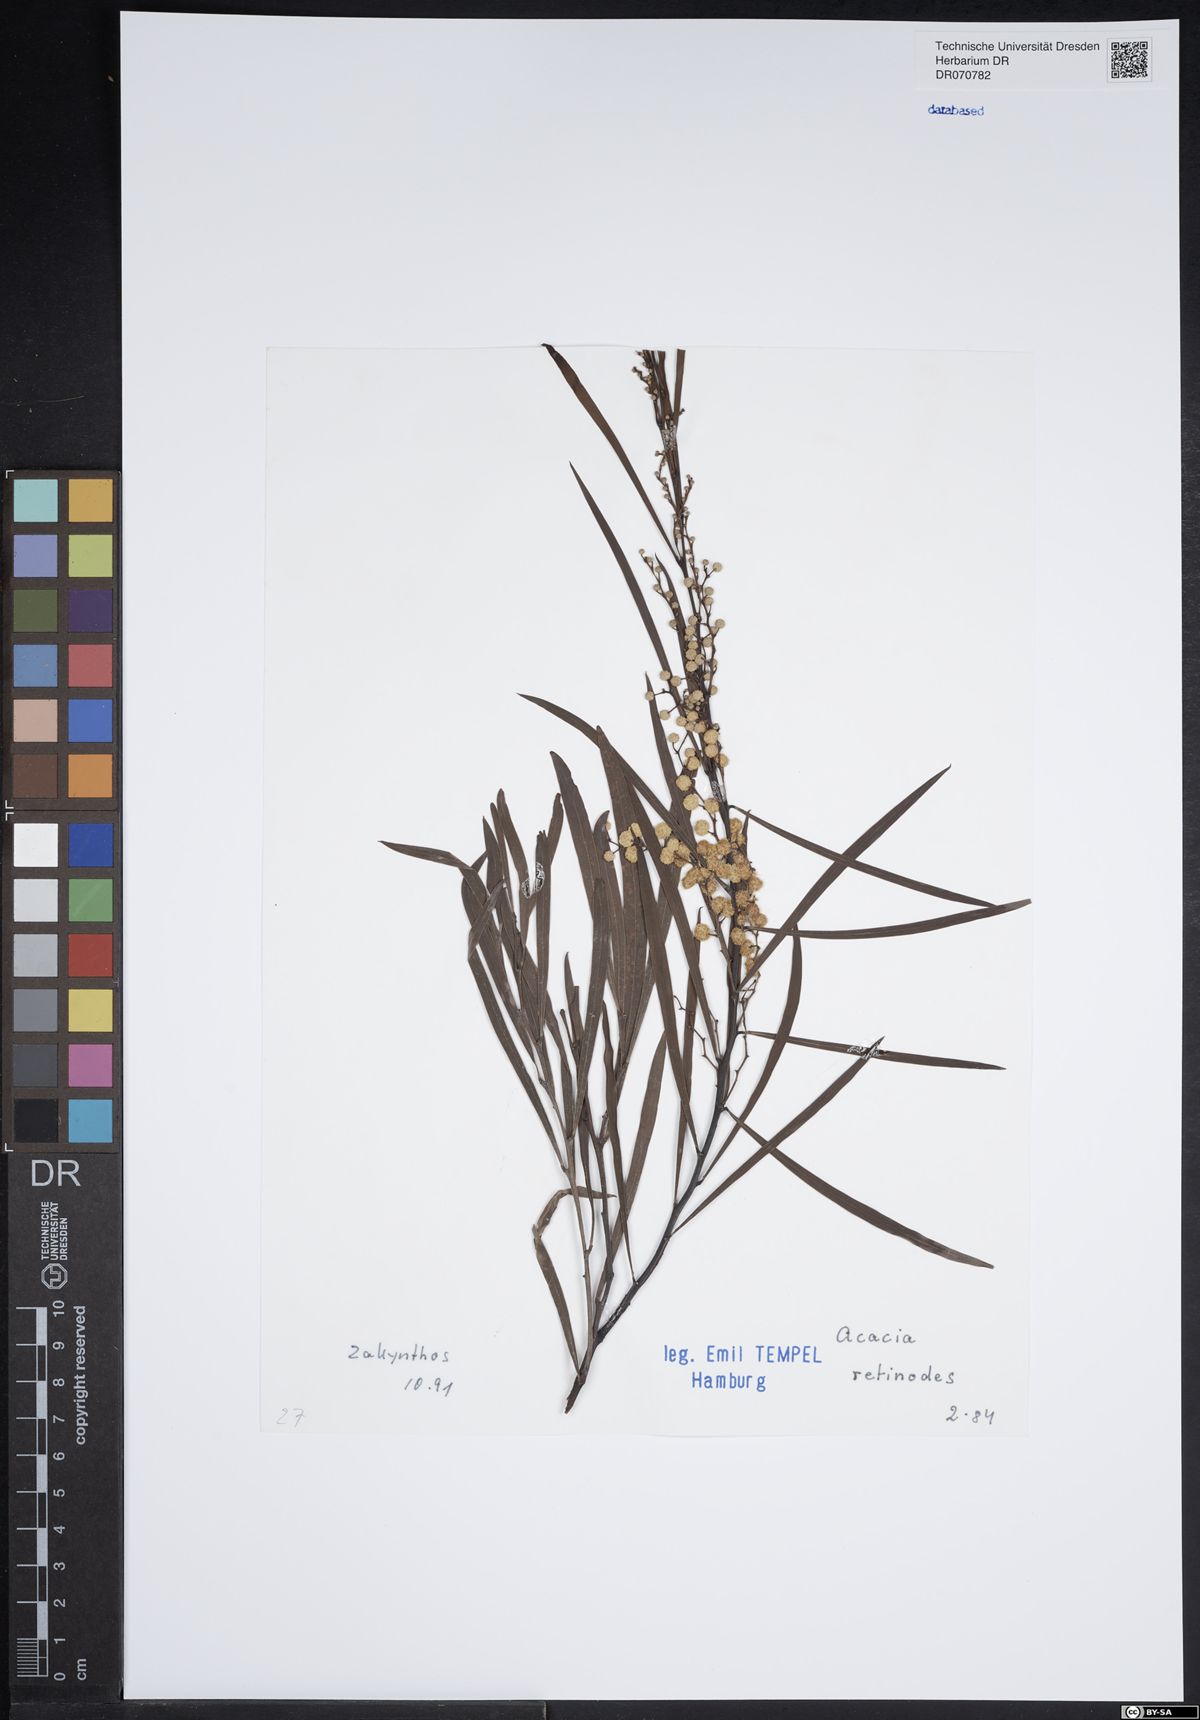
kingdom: Plantae
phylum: Tracheophyta
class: Magnoliopsida
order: Fabales
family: Fabaceae
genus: Acacia
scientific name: Acacia retinodes
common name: Silver wattle
